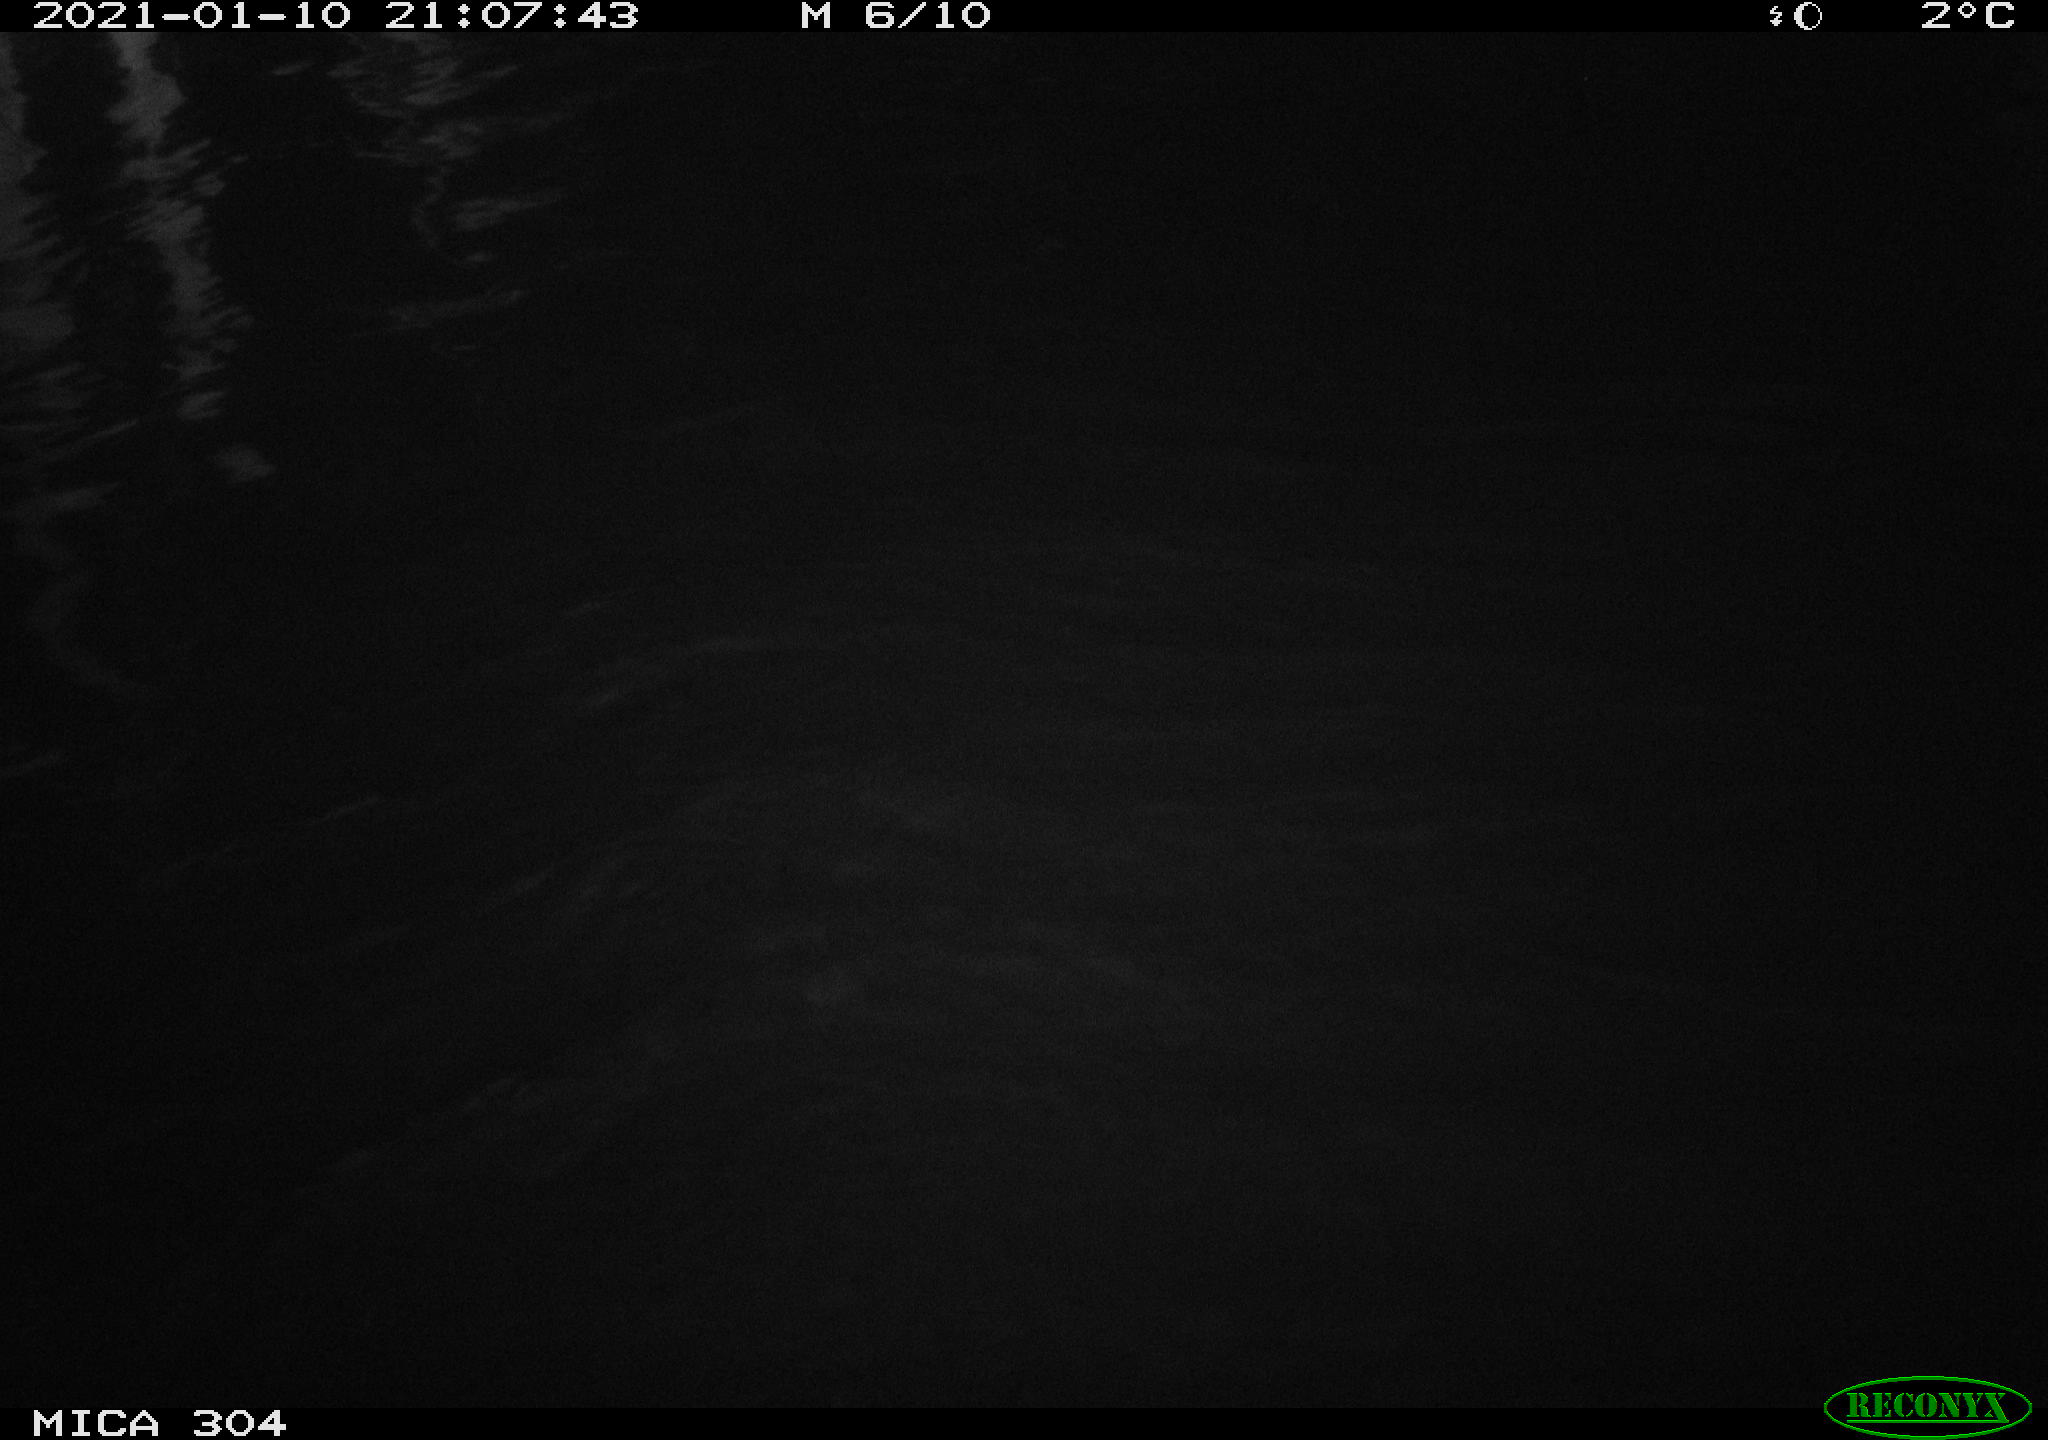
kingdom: Animalia
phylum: Chordata
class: Aves
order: Anseriformes
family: Anatidae
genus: Anas
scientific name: Anas platyrhynchos
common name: Mallard
